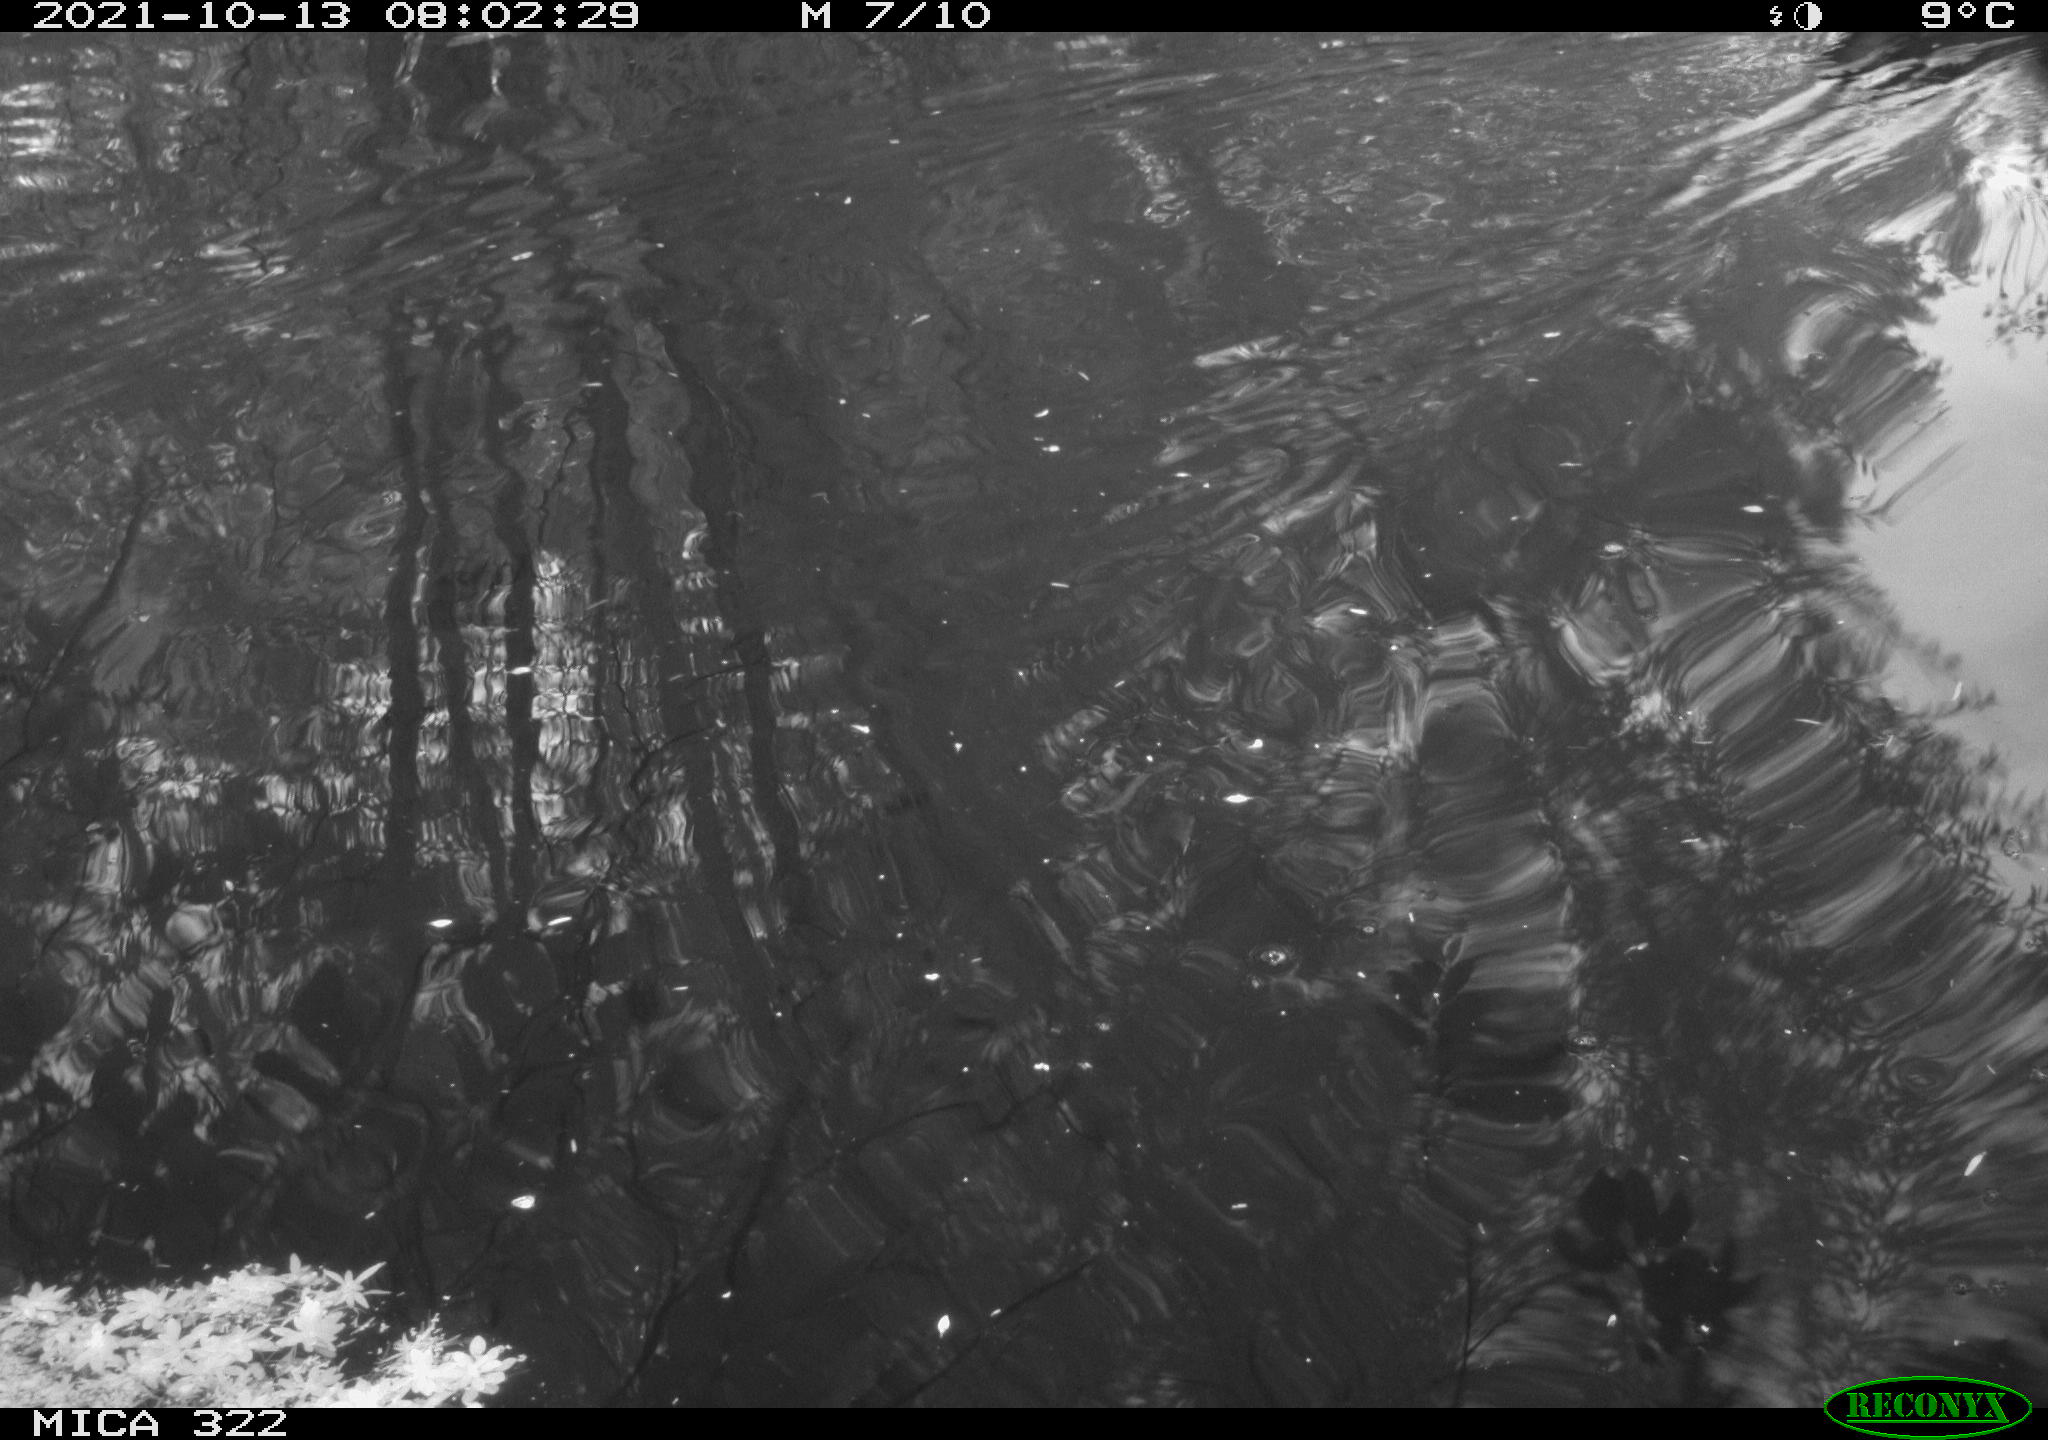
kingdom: Animalia
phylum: Chordata
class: Aves
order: Anseriformes
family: Anatidae
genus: Mareca
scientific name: Mareca strepera
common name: Gadwall
